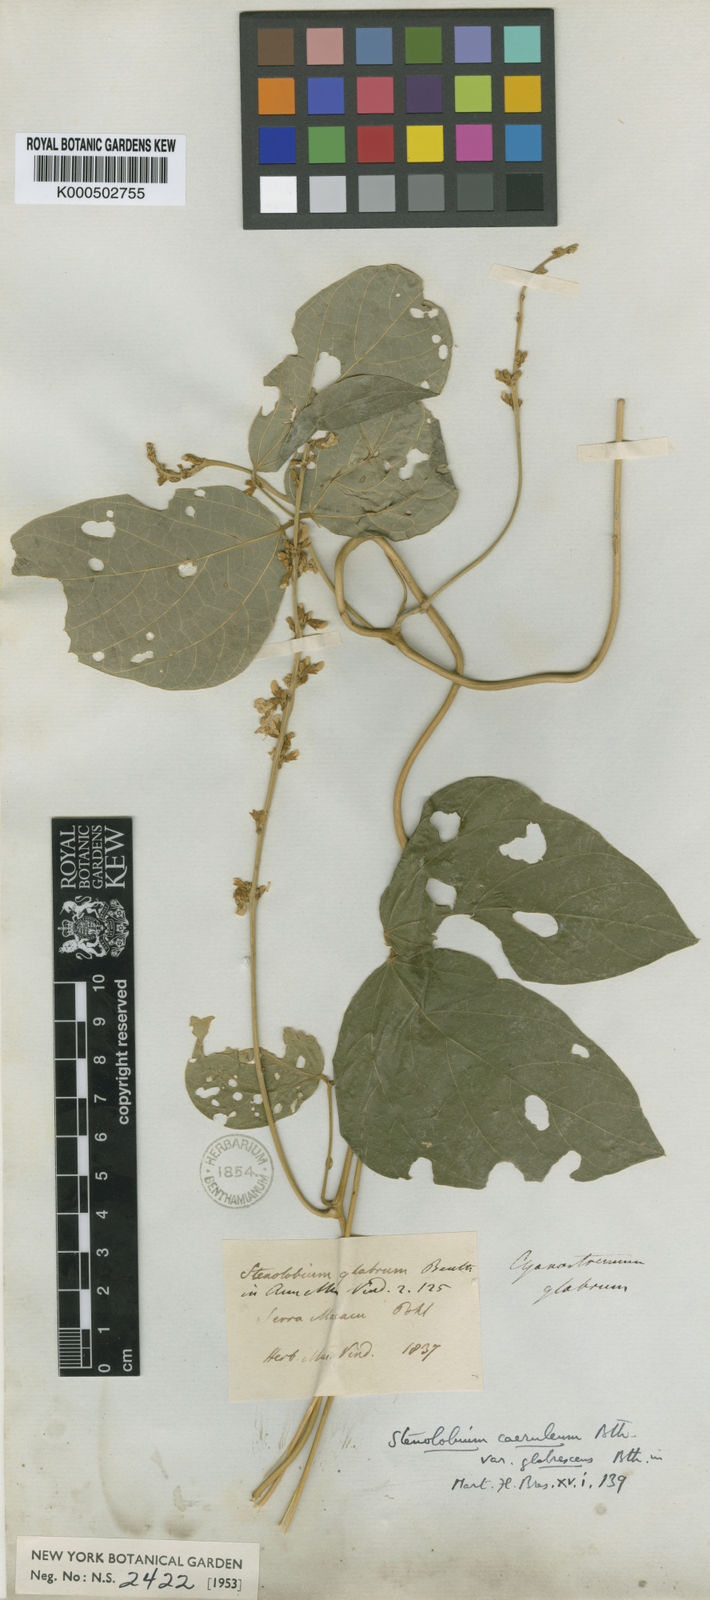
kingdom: Plantae
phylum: Tracheophyta
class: Magnoliopsida
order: Fabales
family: Fabaceae
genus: Calopogonium
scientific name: Calopogonium
